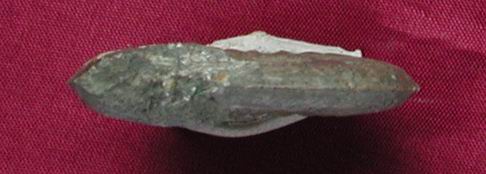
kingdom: Animalia
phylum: Mollusca
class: Cephalopoda
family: Hildoceratidae
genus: Pleydellia
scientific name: Pleydellia
